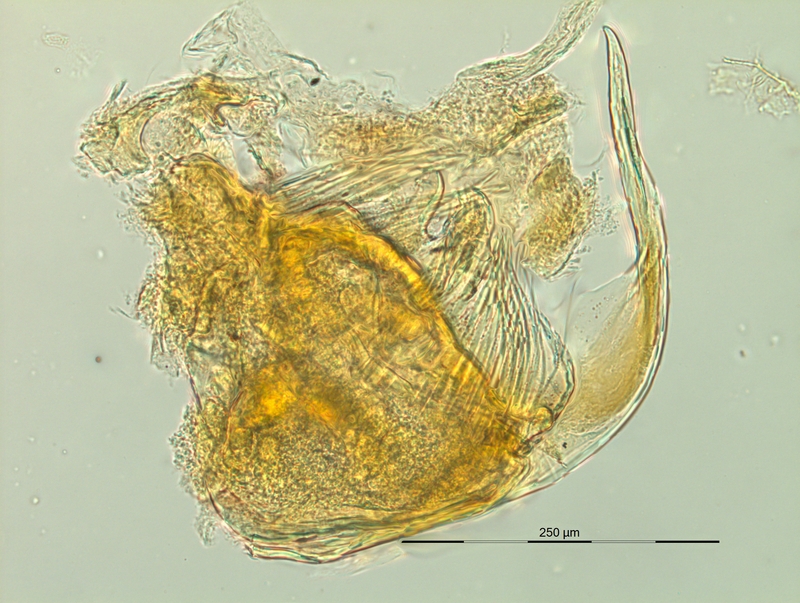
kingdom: Animalia
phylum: Arthropoda
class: Diplopoda
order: Chordeumatida
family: Craspedosomatidae
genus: Pyrgocyphosoma
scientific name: Pyrgocyphosoma aspidiorum
